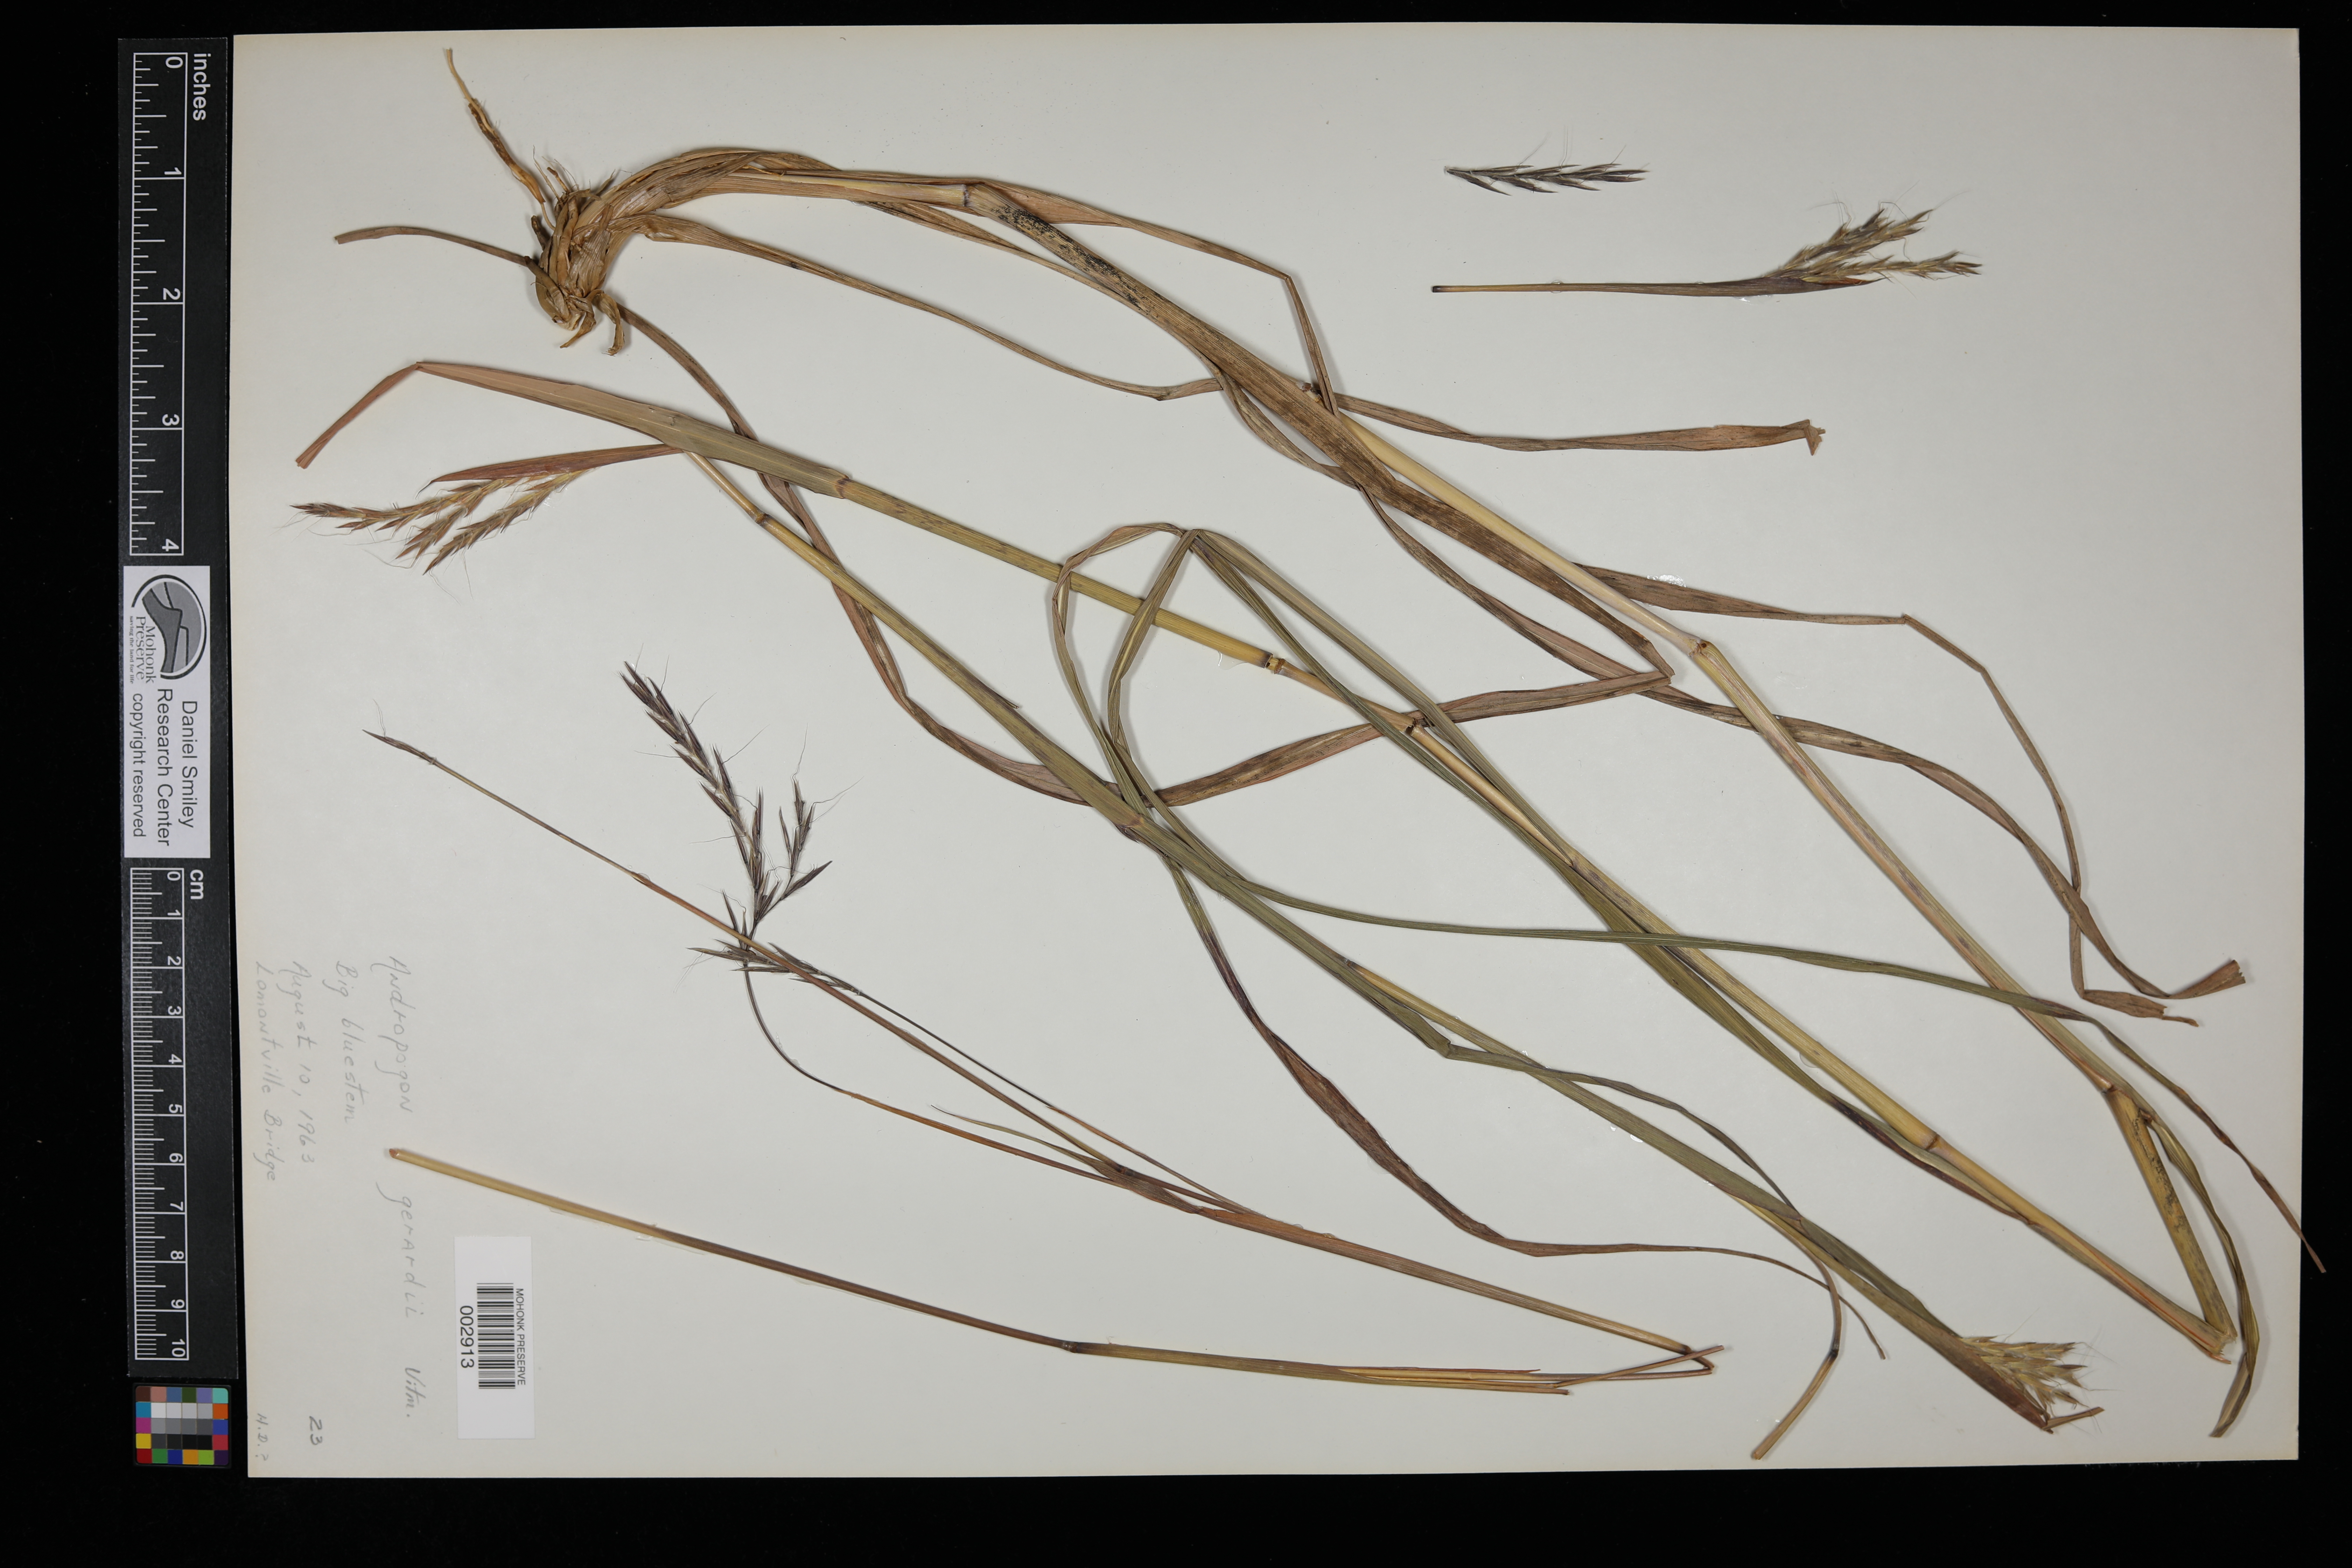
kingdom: Plantae
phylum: Tracheophyta
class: Liliopsida
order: Poales
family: Poaceae
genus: Andropogon
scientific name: Andropogon gerardi
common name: Big bluestem
